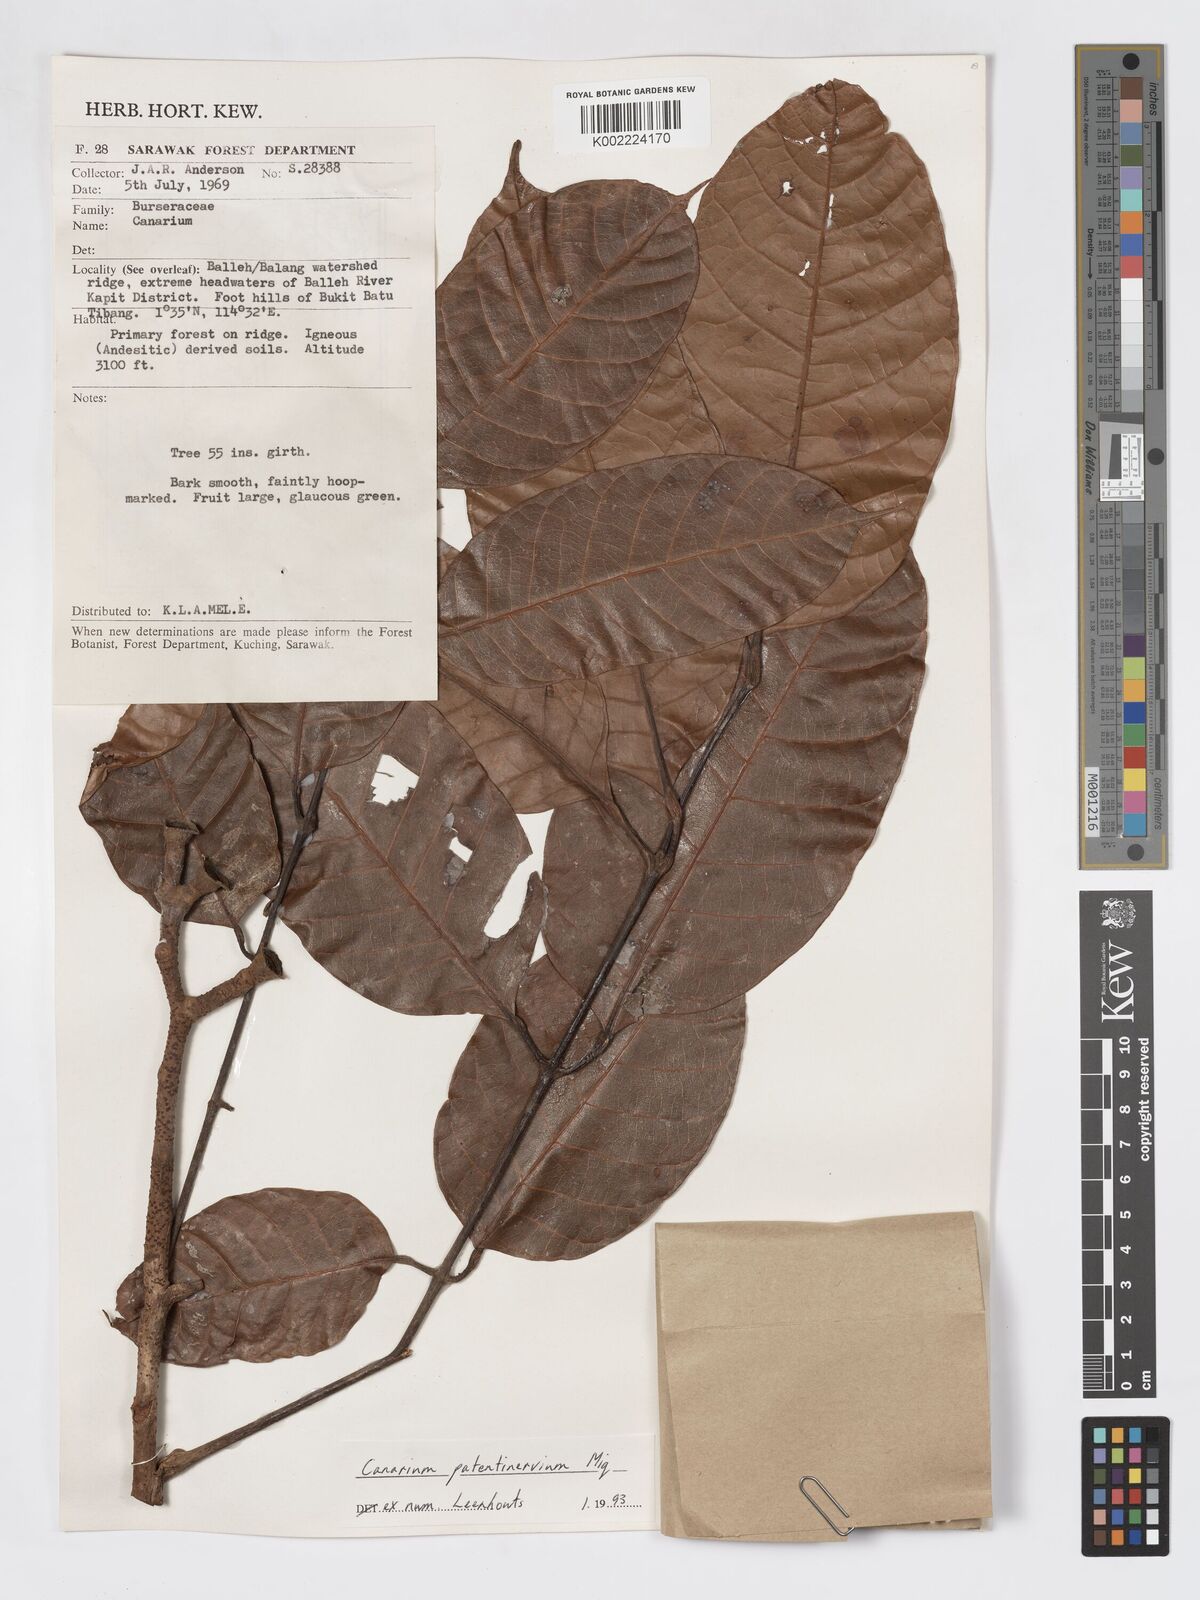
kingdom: Plantae
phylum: Tracheophyta
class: Magnoliopsida
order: Sapindales
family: Burseraceae
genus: Canarium
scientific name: Canarium patentinervium
